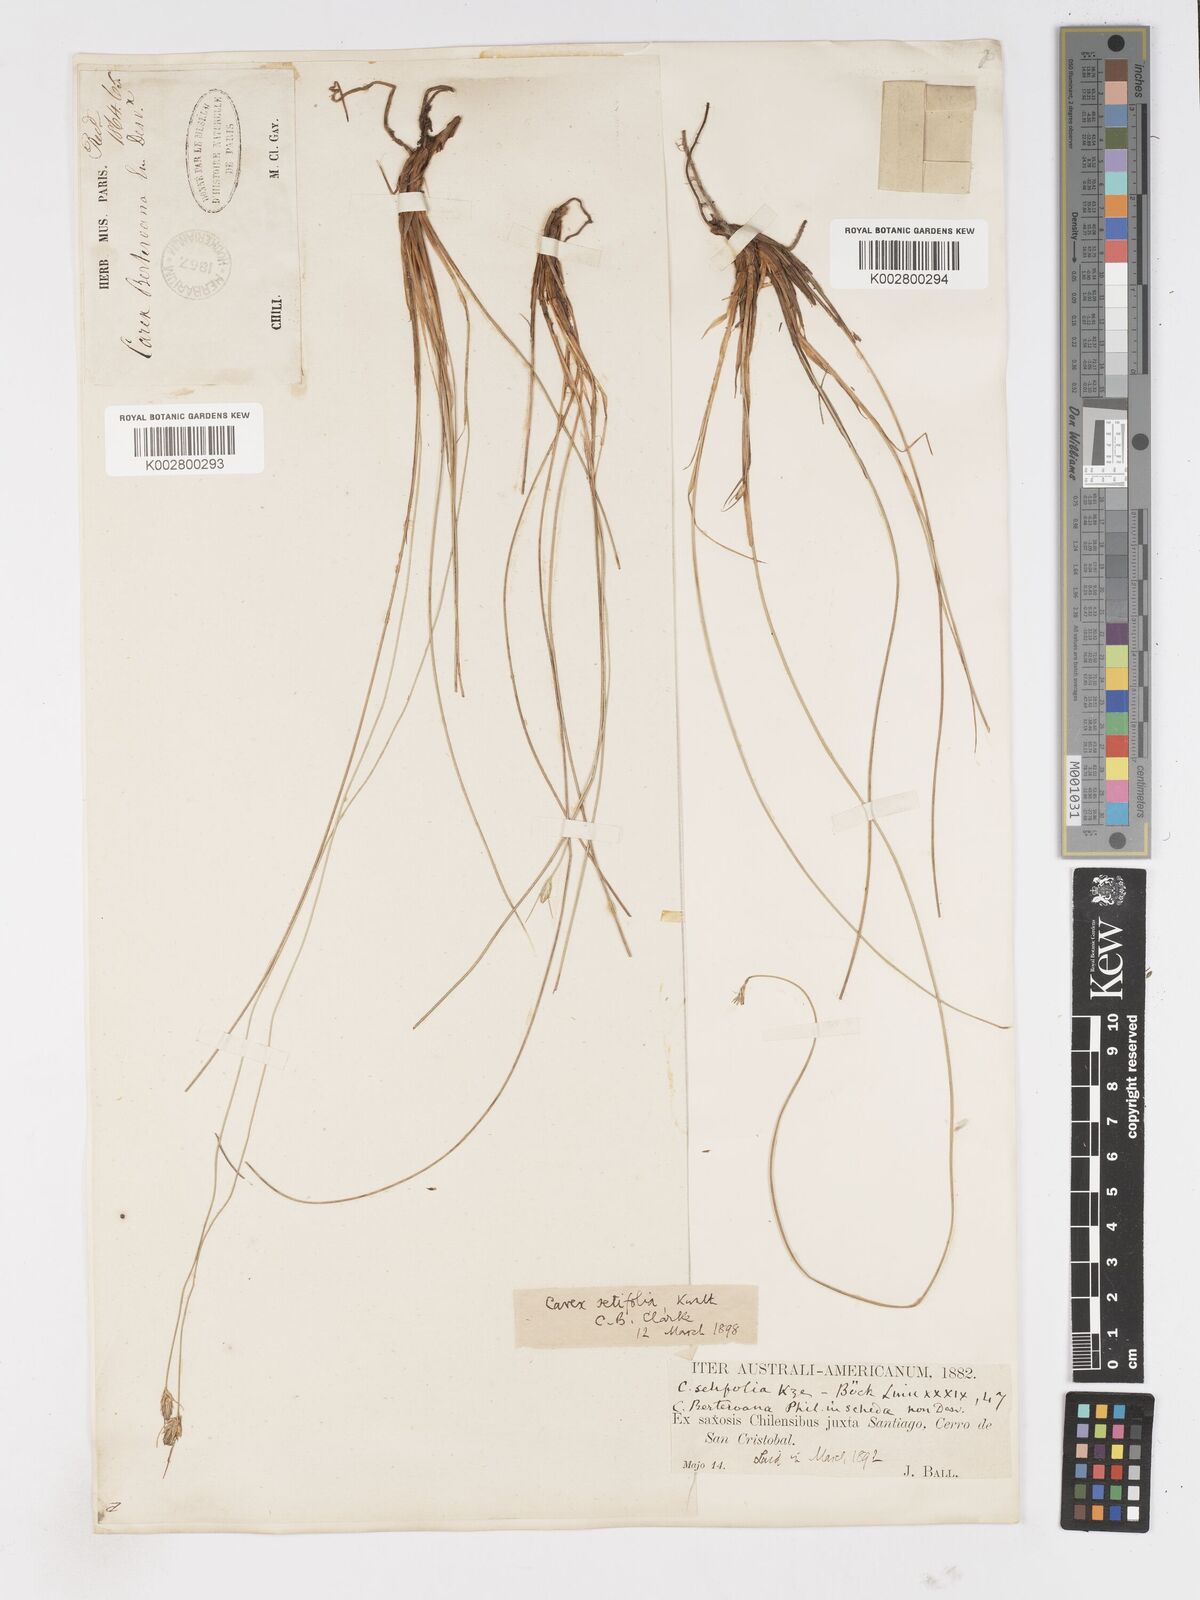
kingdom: Plantae
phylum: Tracheophyta
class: Liliopsida
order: Poales
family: Cyperaceae
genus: Carex
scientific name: Carex setifolia
